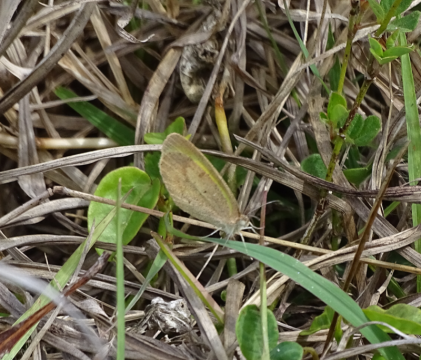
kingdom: Animalia
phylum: Arthropoda
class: Insecta
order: Lepidoptera
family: Pieridae
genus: Eurema
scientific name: Eurema daira
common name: Barred Yellow
